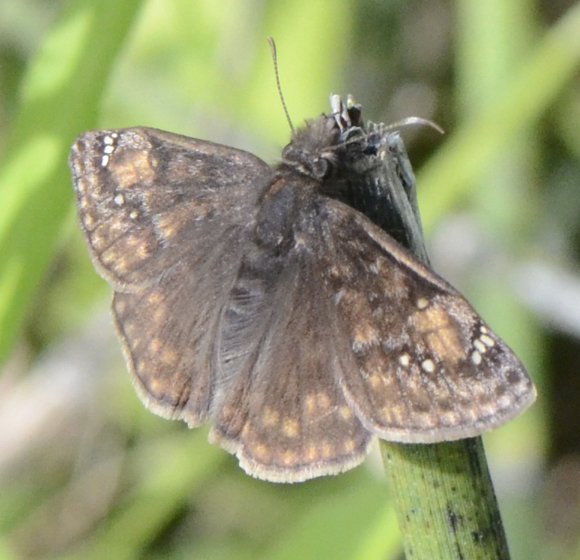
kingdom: Animalia
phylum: Arthropoda
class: Insecta
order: Lepidoptera
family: Hesperiidae
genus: Gesta
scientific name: Gesta
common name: Juvenal's Duskywing
